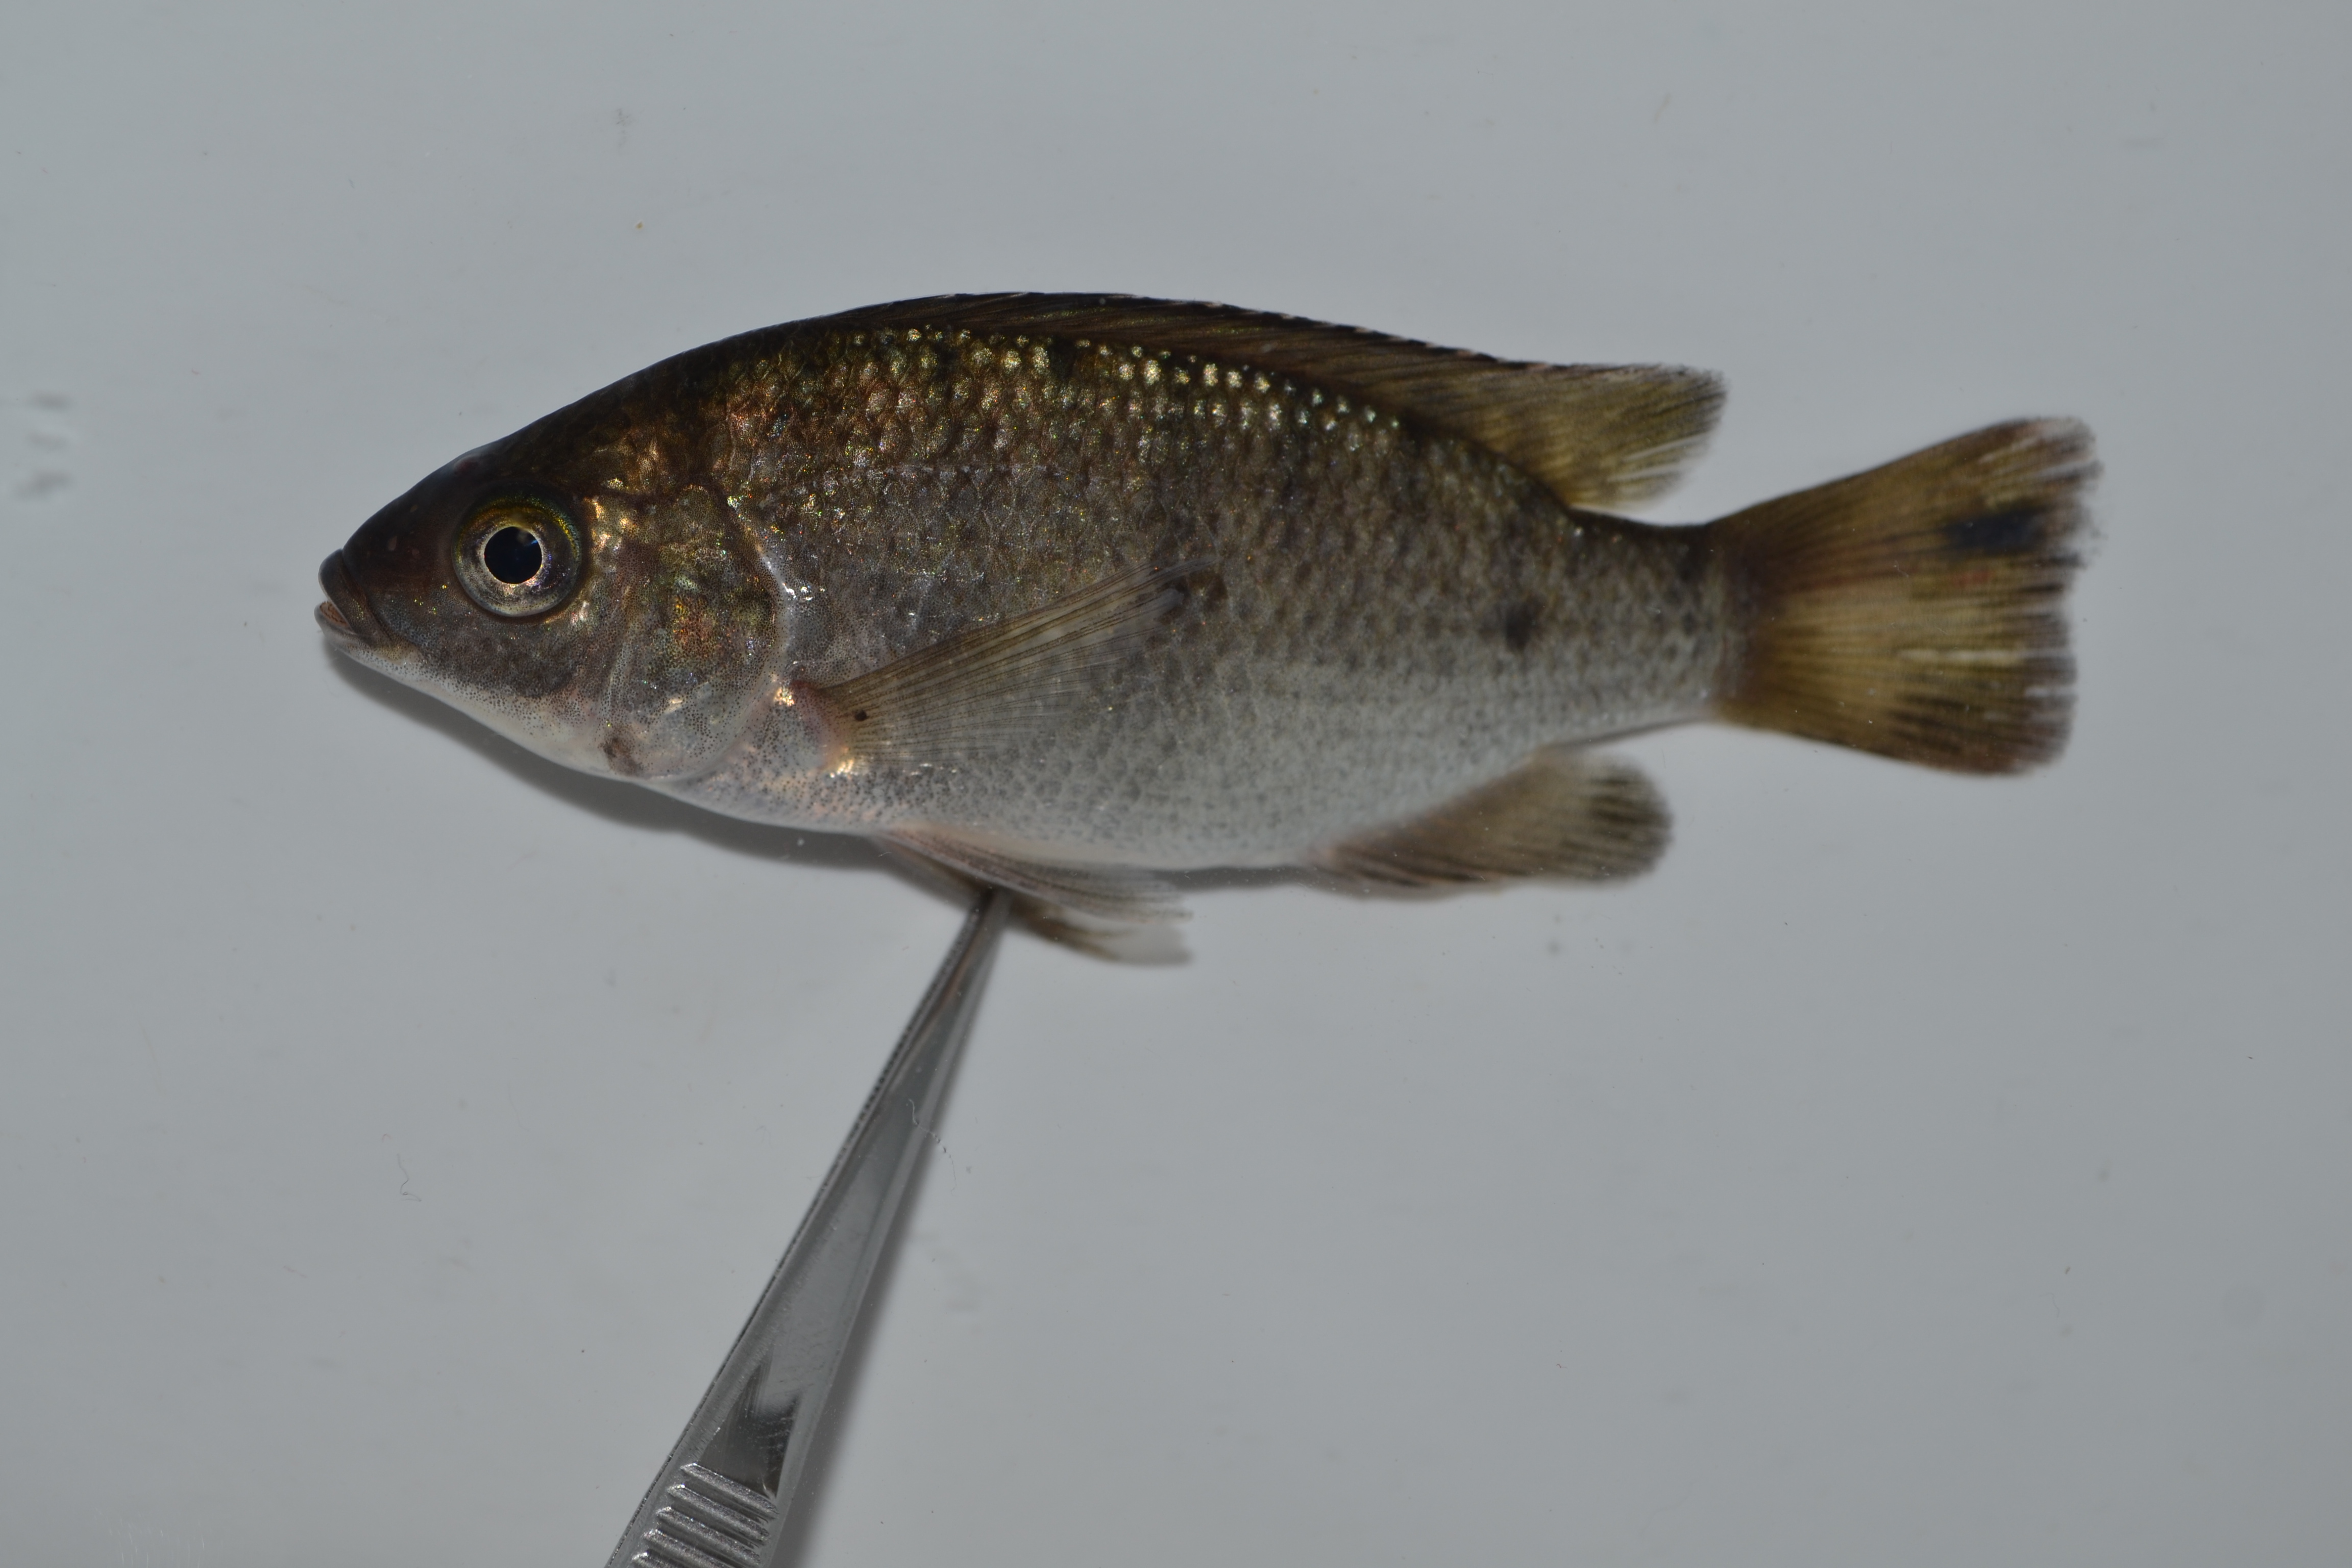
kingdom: Animalia
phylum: Chordata
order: Perciformes
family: Cichlidae
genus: Oreochromis
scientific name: Oreochromis mossambicus
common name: Mozambique tilapia
